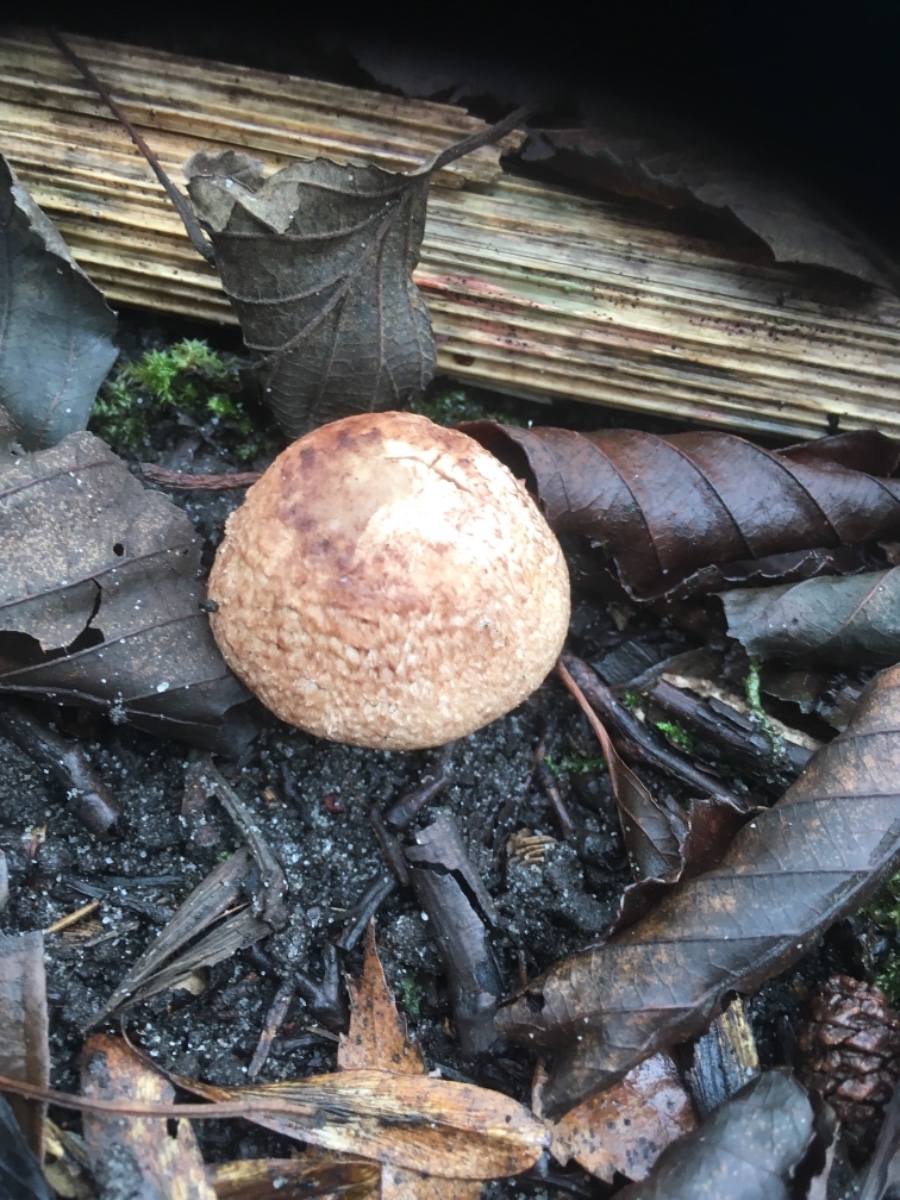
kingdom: Fungi
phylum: Basidiomycota
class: Agaricomycetes
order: Agaricales
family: Agaricaceae
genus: Agaricus
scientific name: Agaricus
